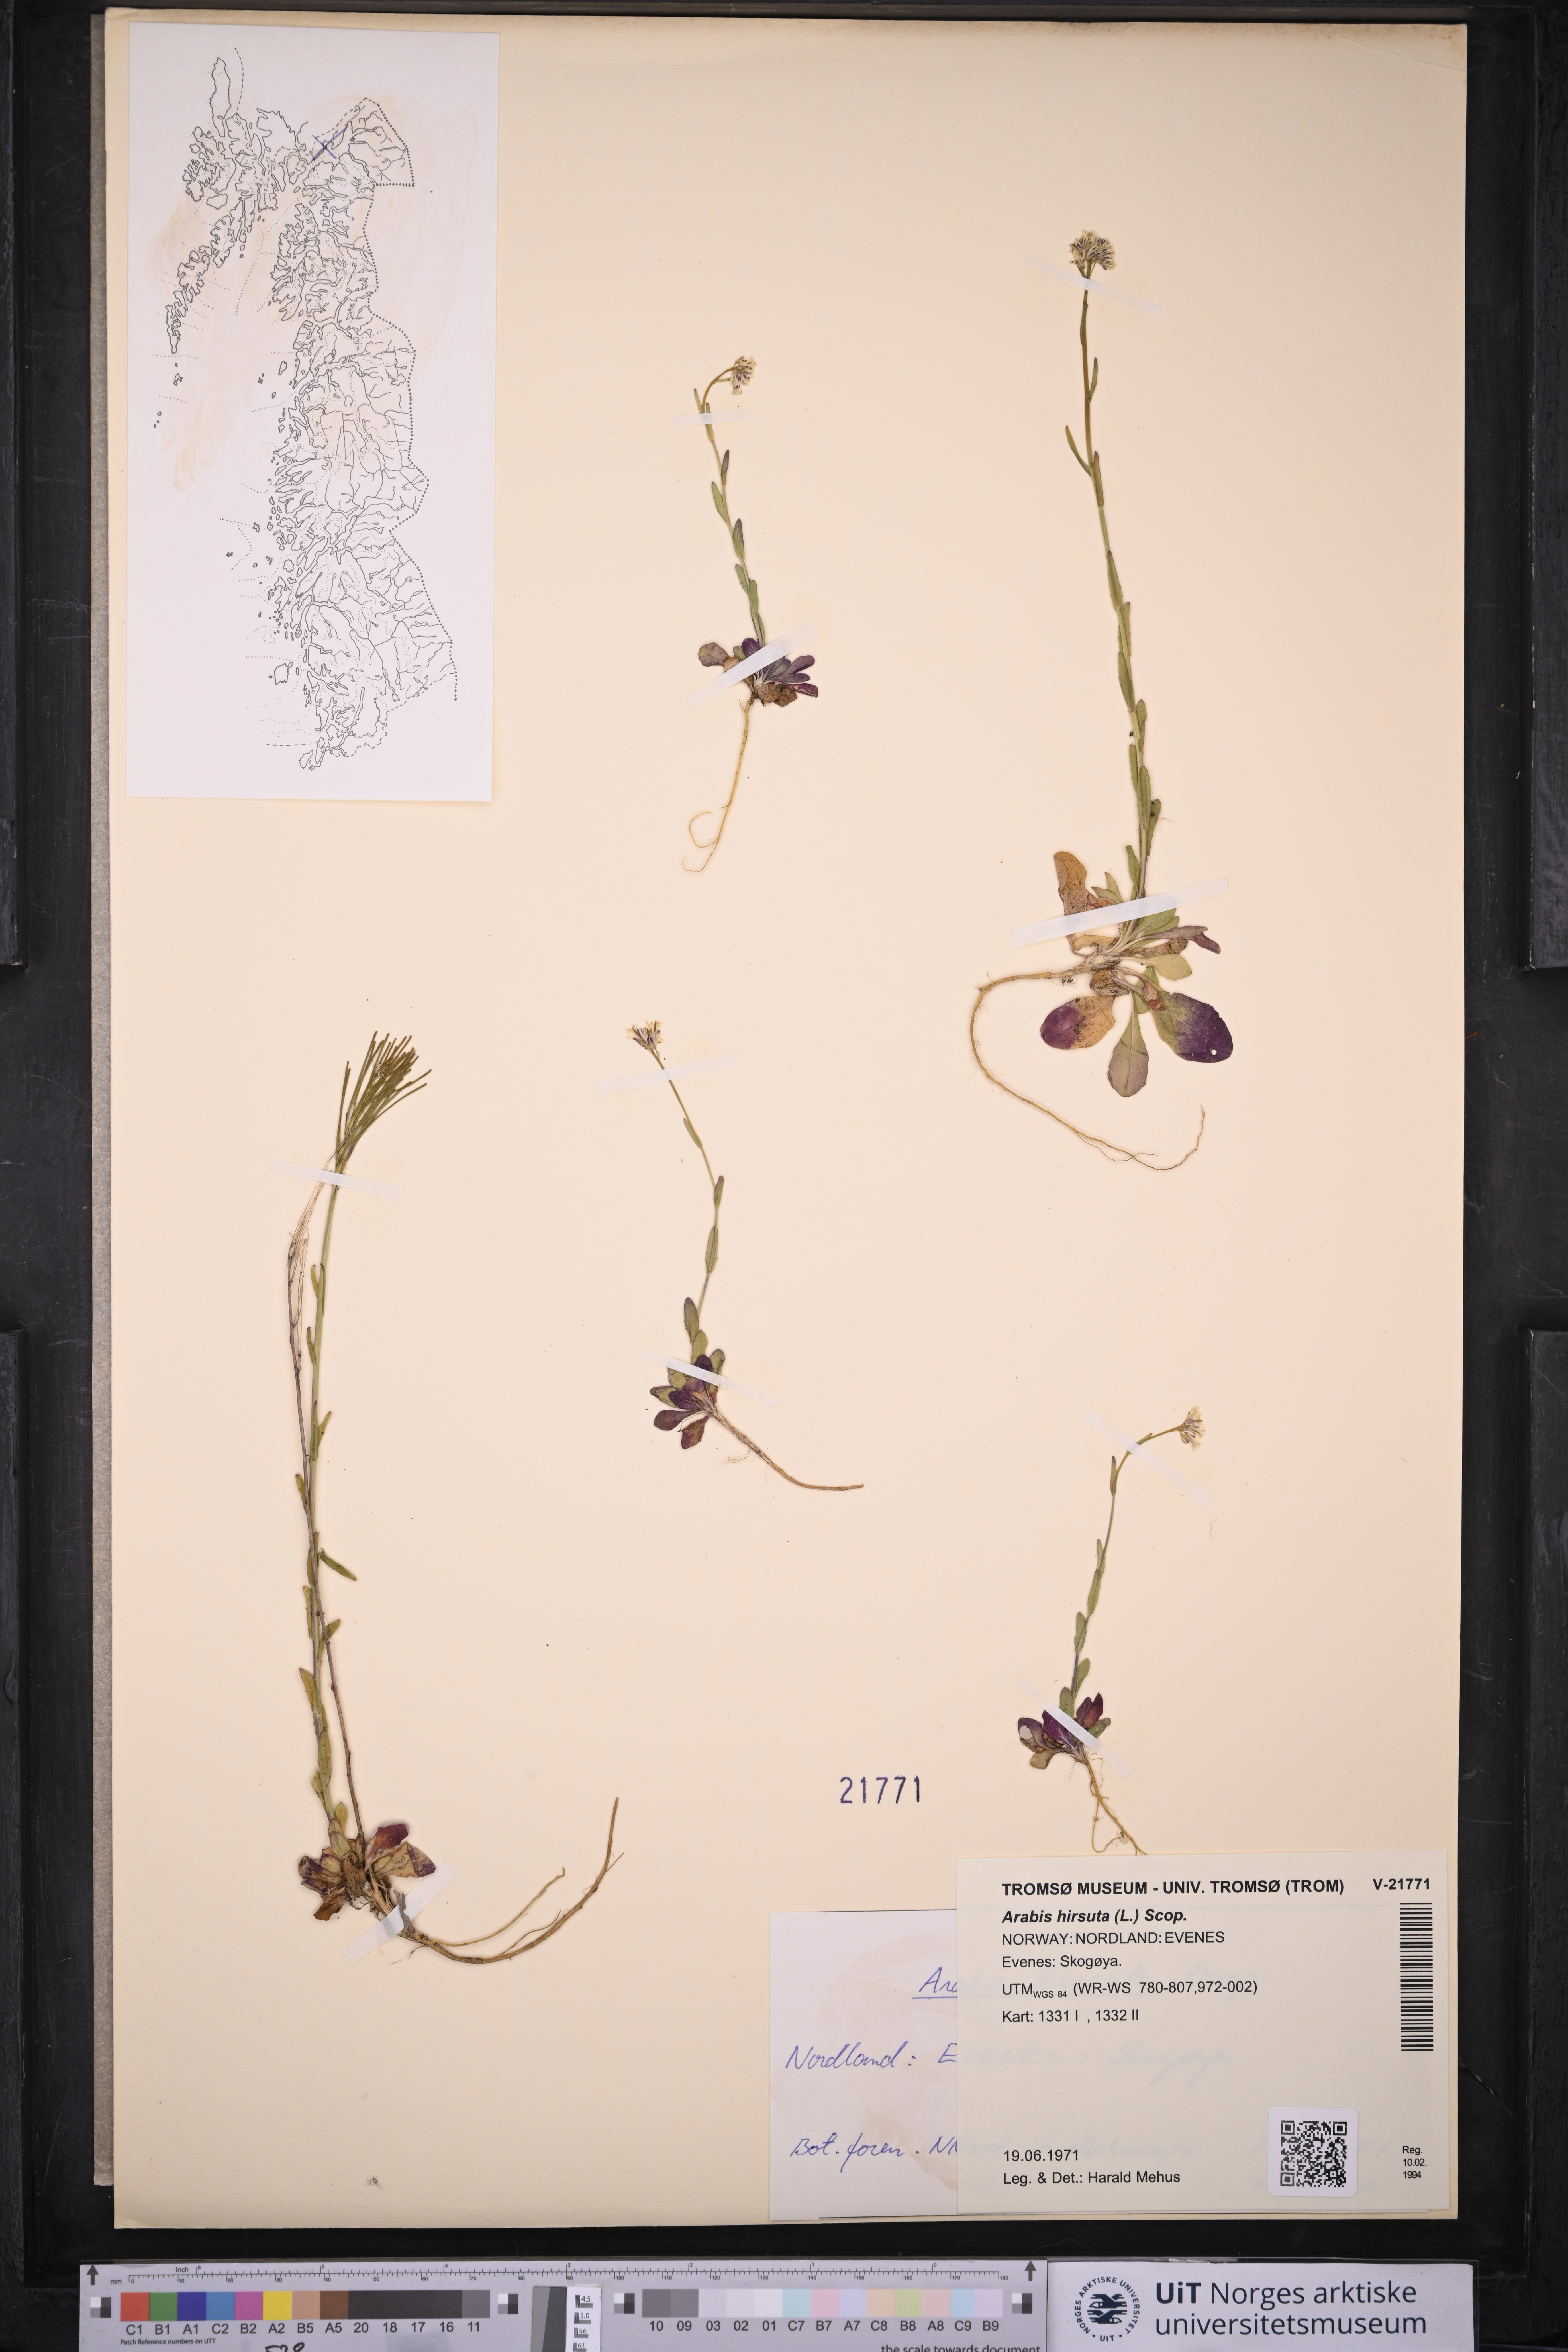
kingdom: Plantae
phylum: Tracheophyta
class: Magnoliopsida
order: Brassicales
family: Brassicaceae
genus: Arabis
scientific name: Arabis hirsuta
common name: Hairy rock-cress
